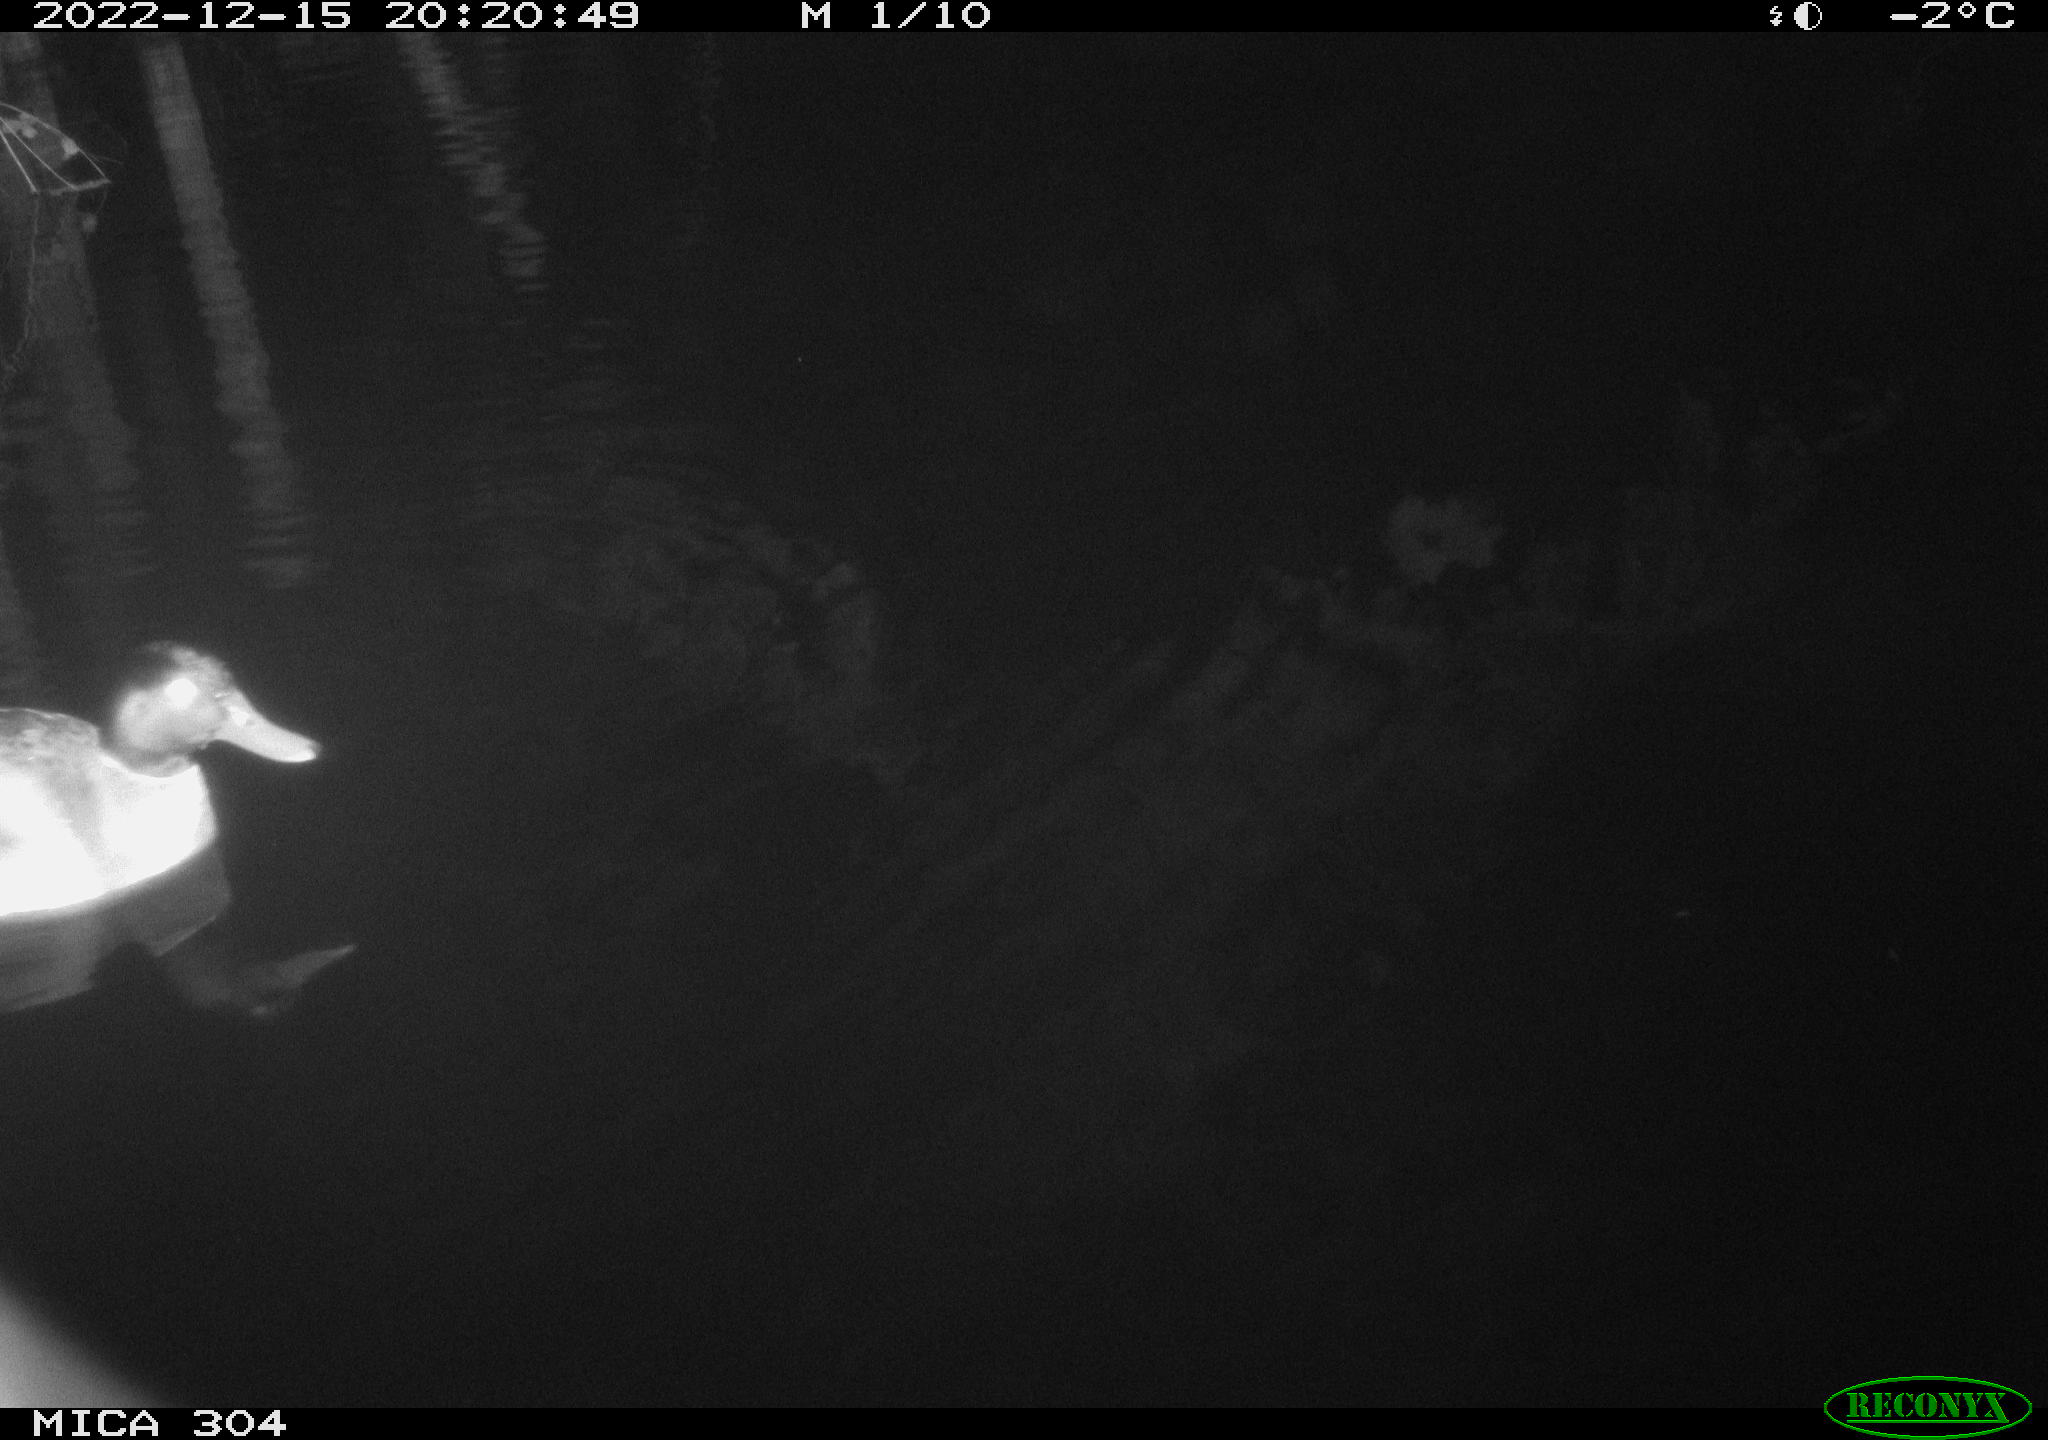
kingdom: Animalia
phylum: Chordata
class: Aves
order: Anseriformes
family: Anatidae
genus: Anas
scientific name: Anas
